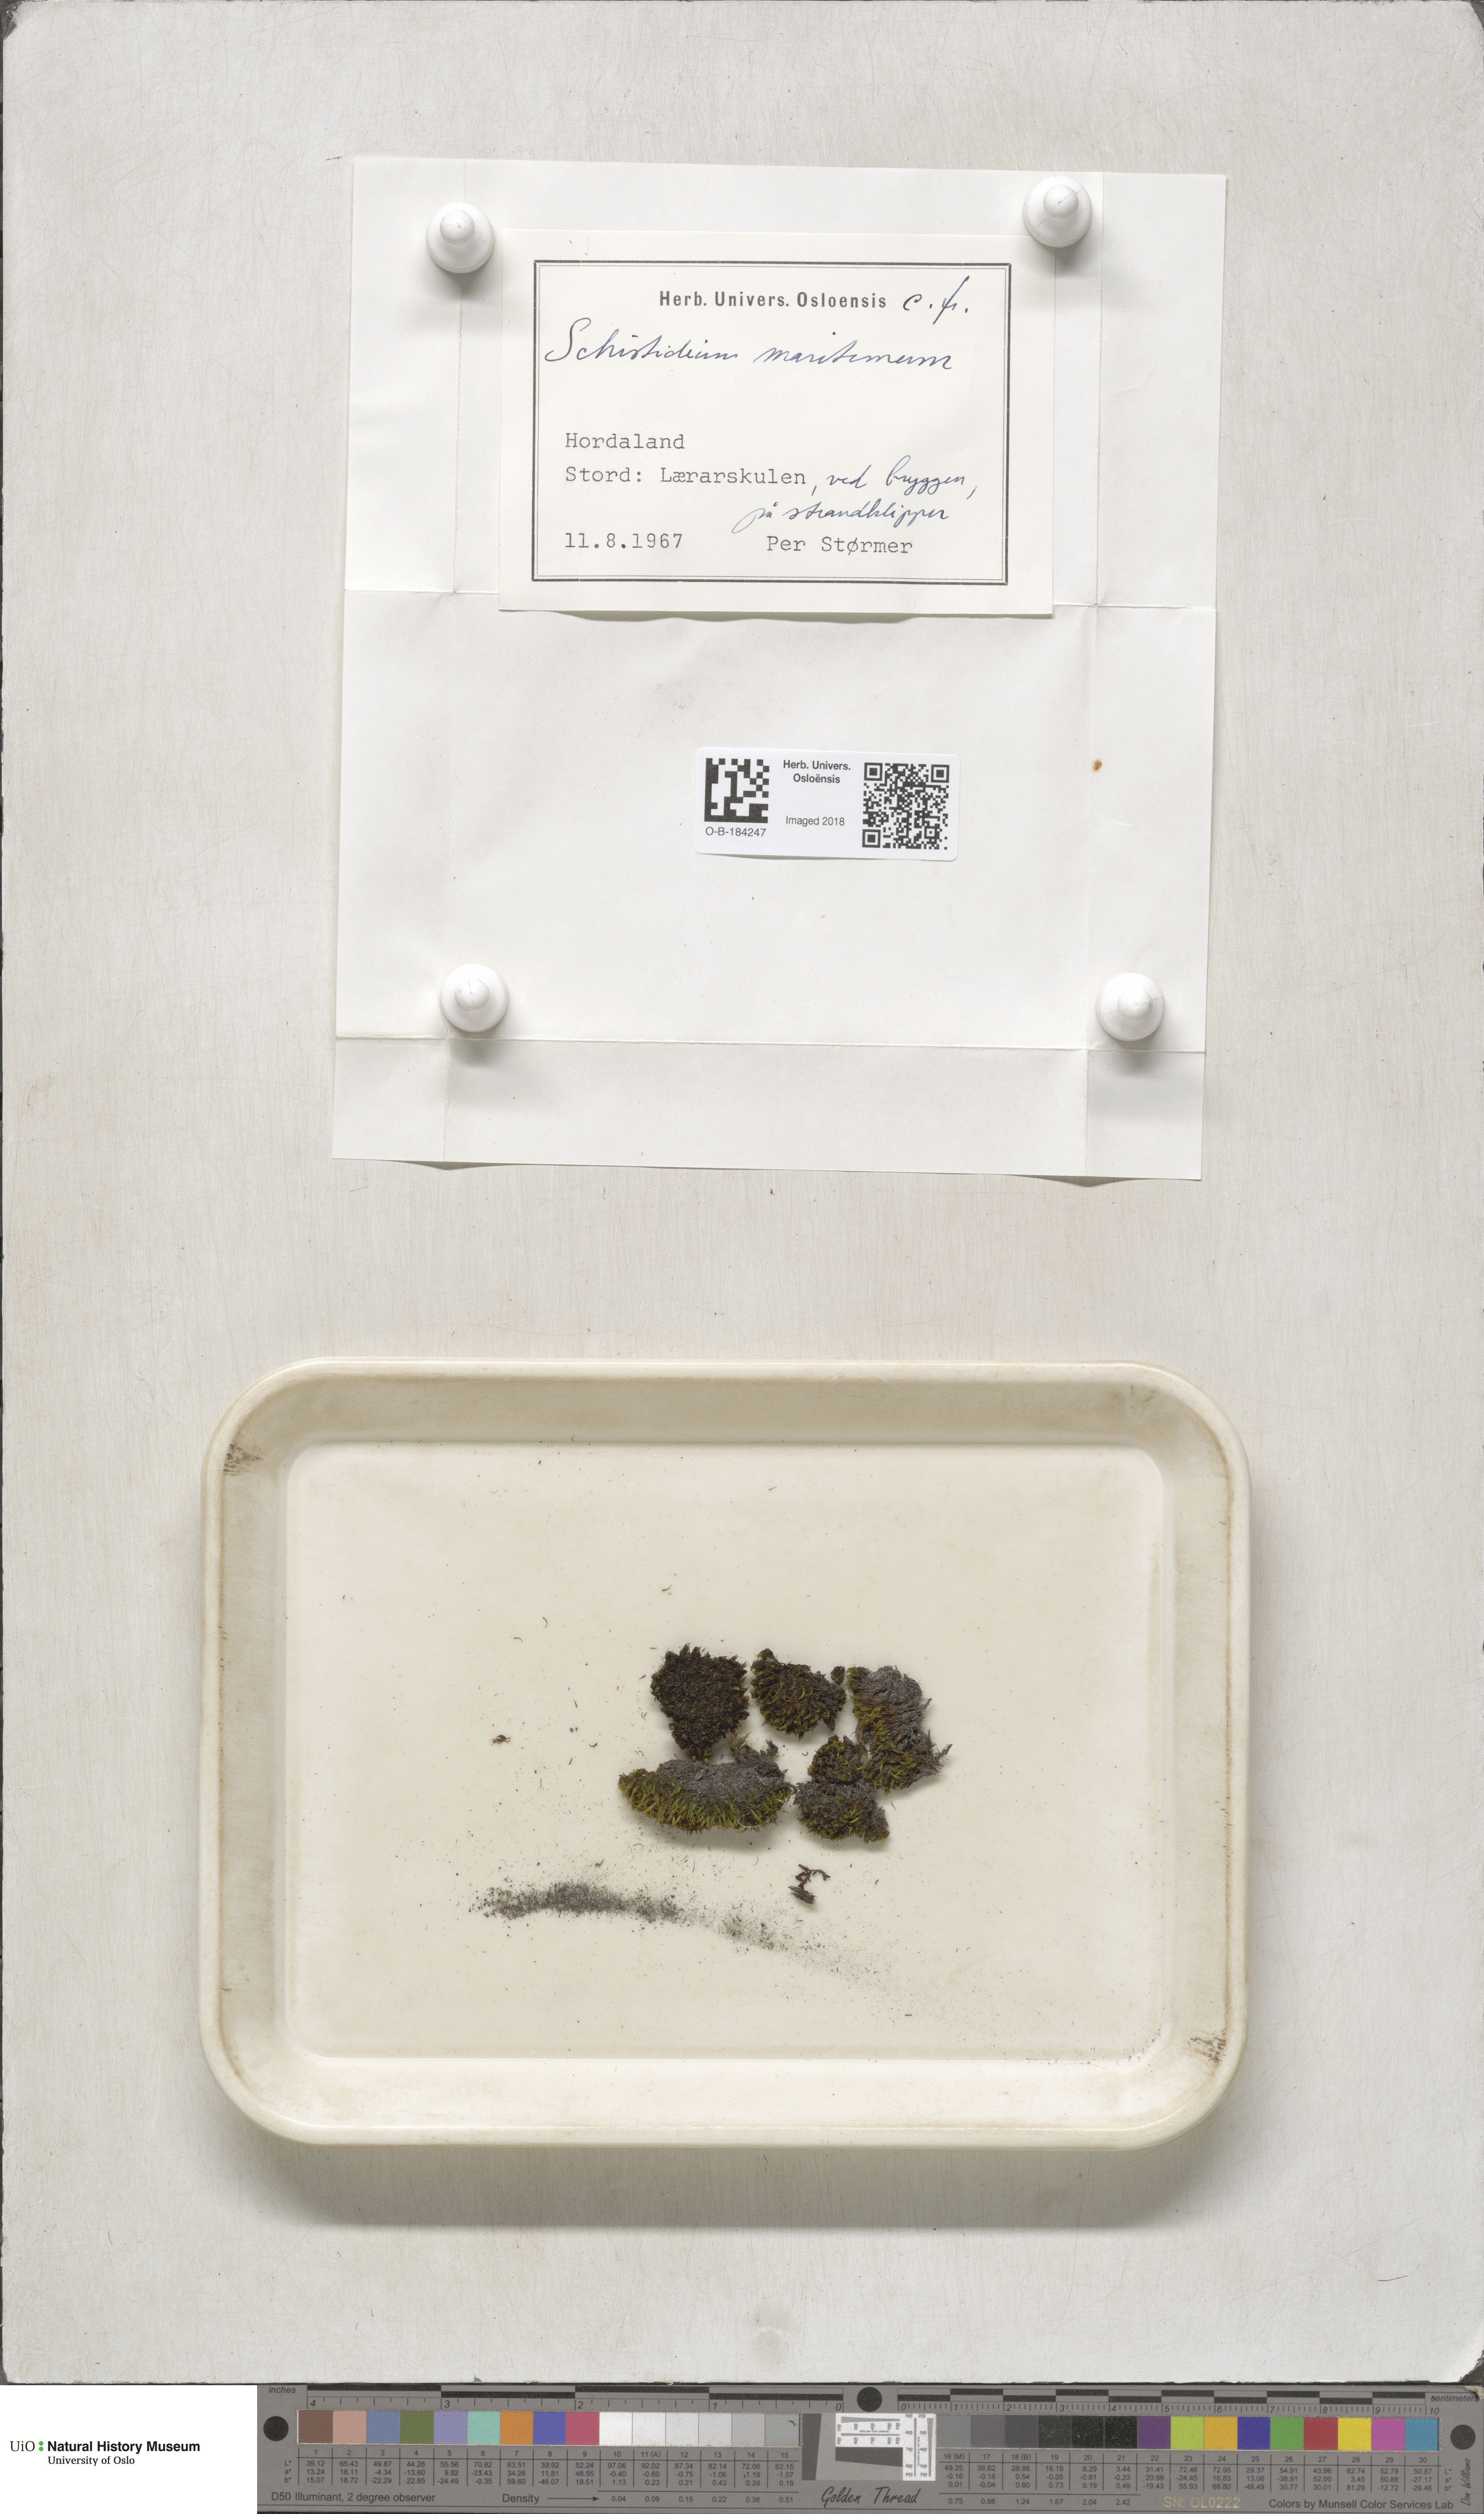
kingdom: Plantae
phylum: Bryophyta
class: Bryopsida
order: Grimmiales
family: Grimmiaceae
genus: Schistidium
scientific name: Schistidium maritimum
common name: Seaside bloom moss
